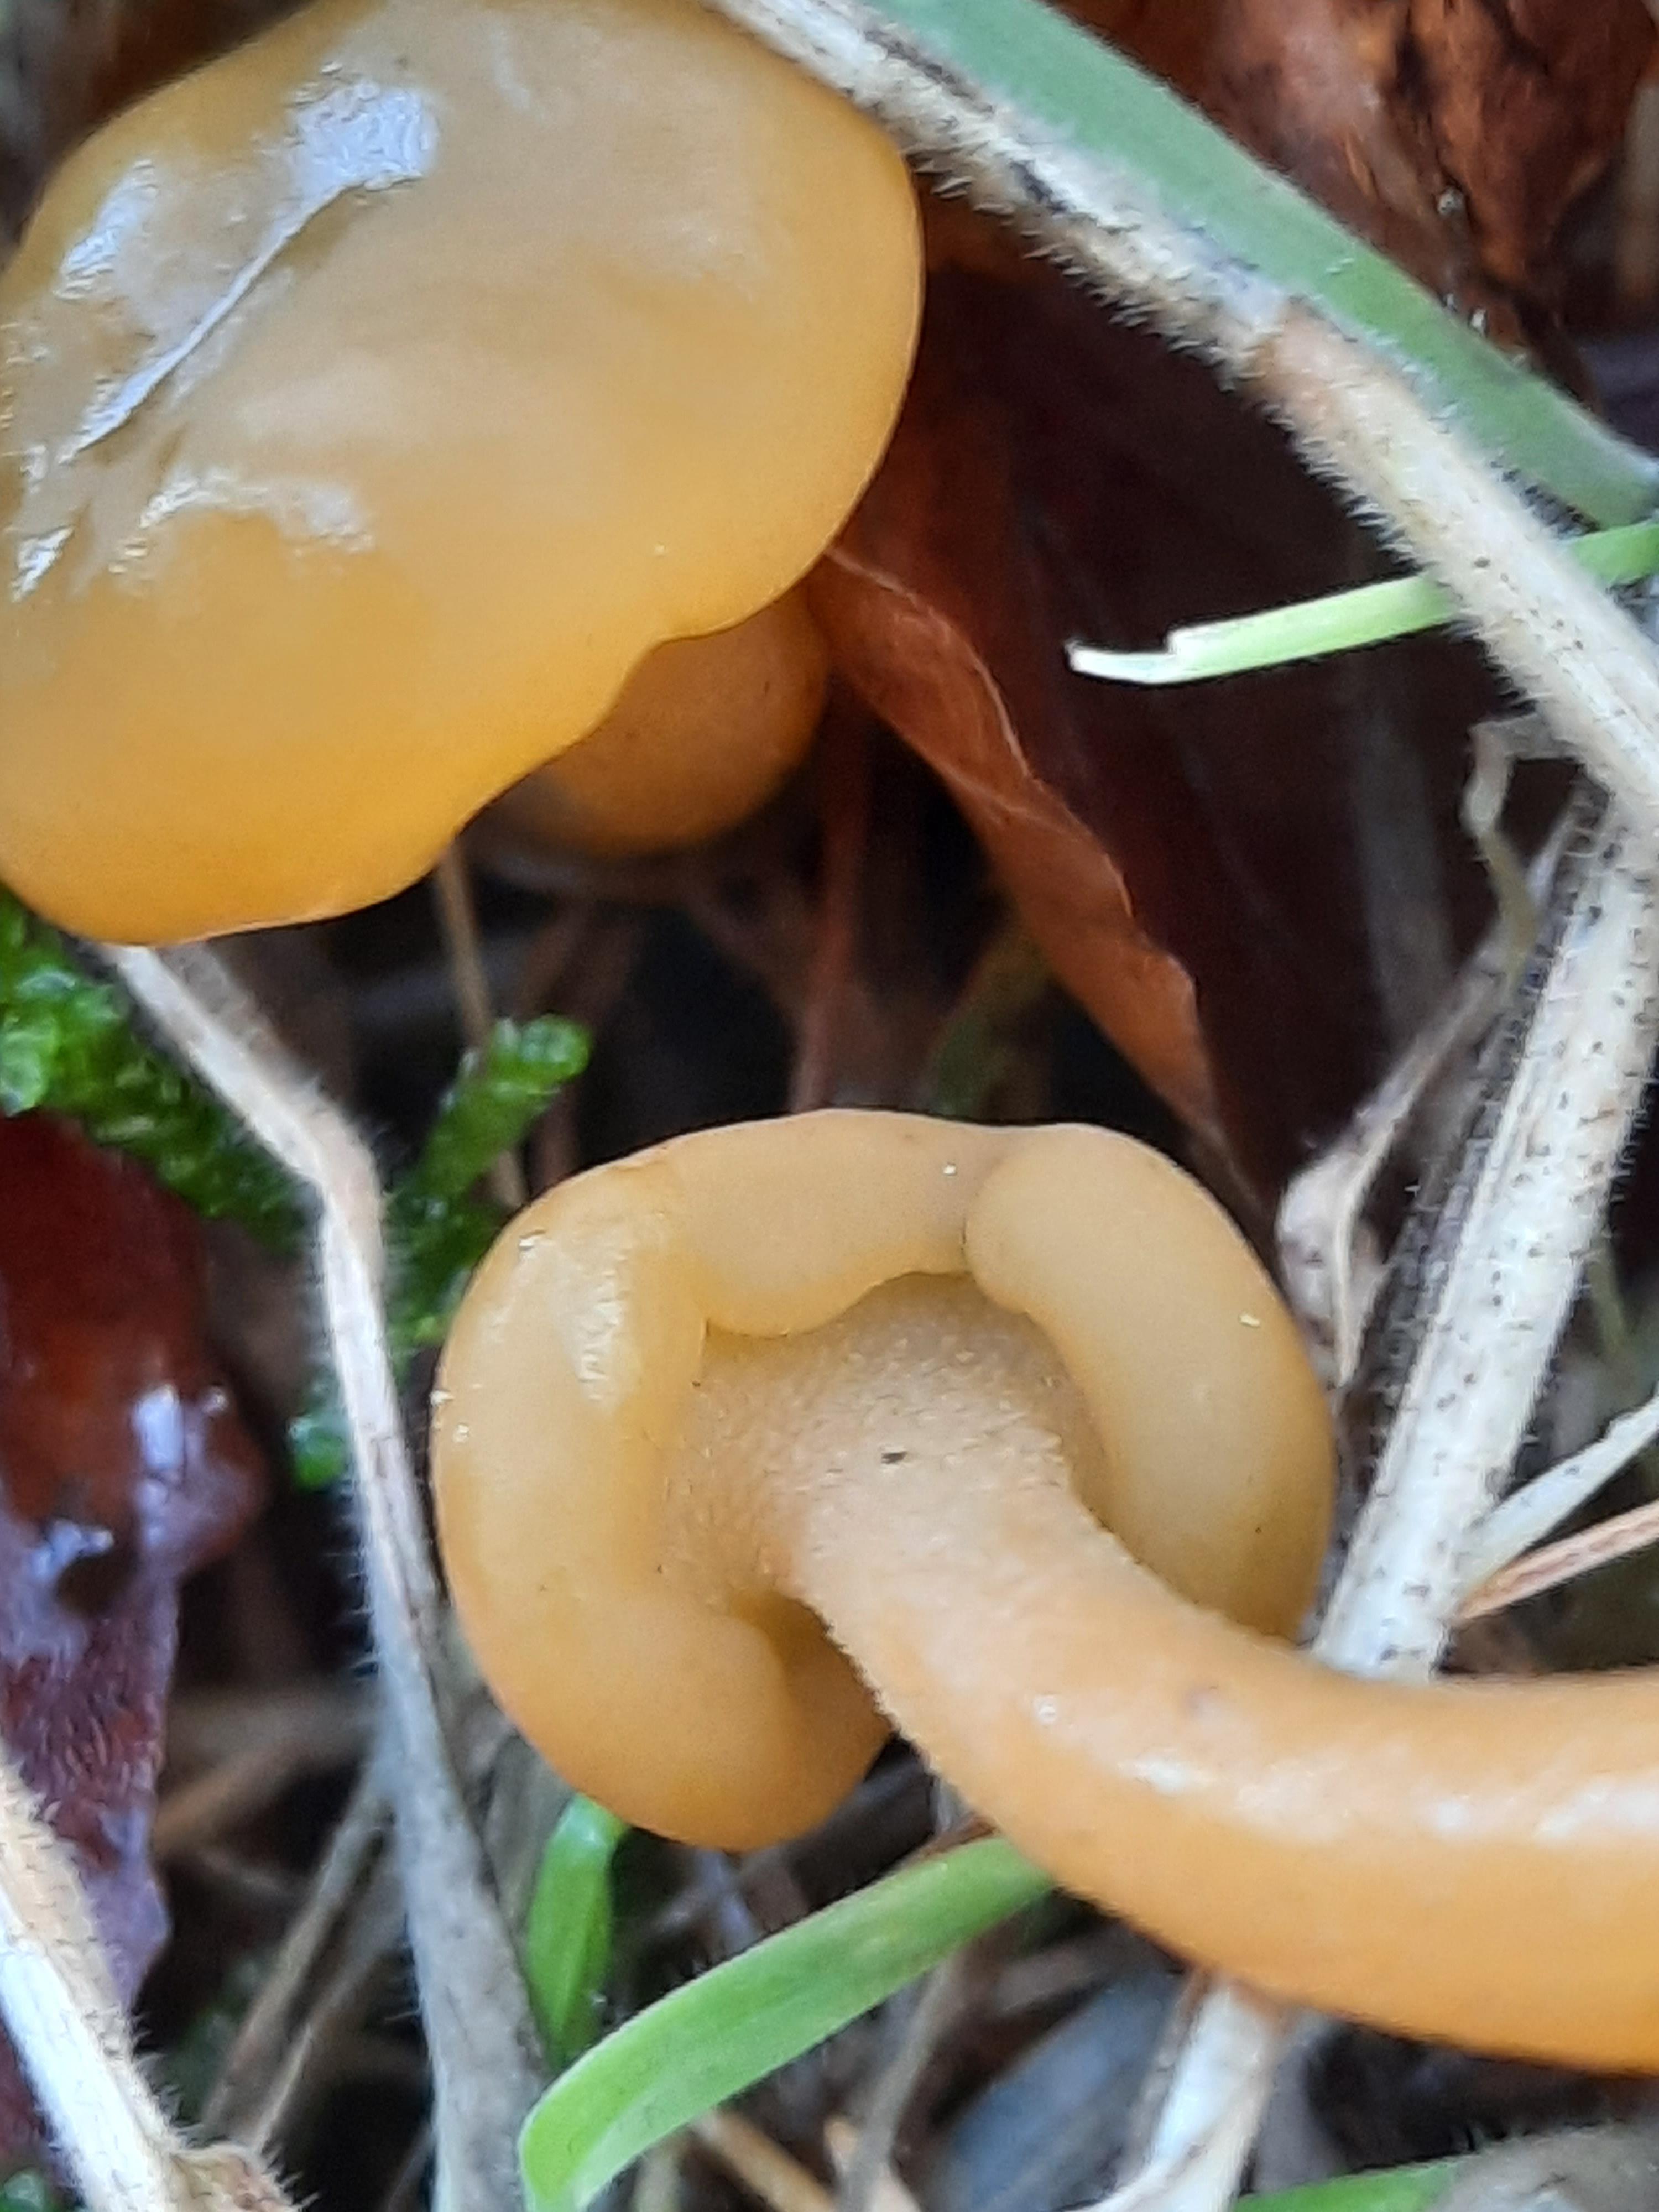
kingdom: Fungi
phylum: Ascomycota
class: Leotiomycetes
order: Leotiales
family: Leotiaceae
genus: Leotia
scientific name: Leotia lubrica
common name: ravsvamp
